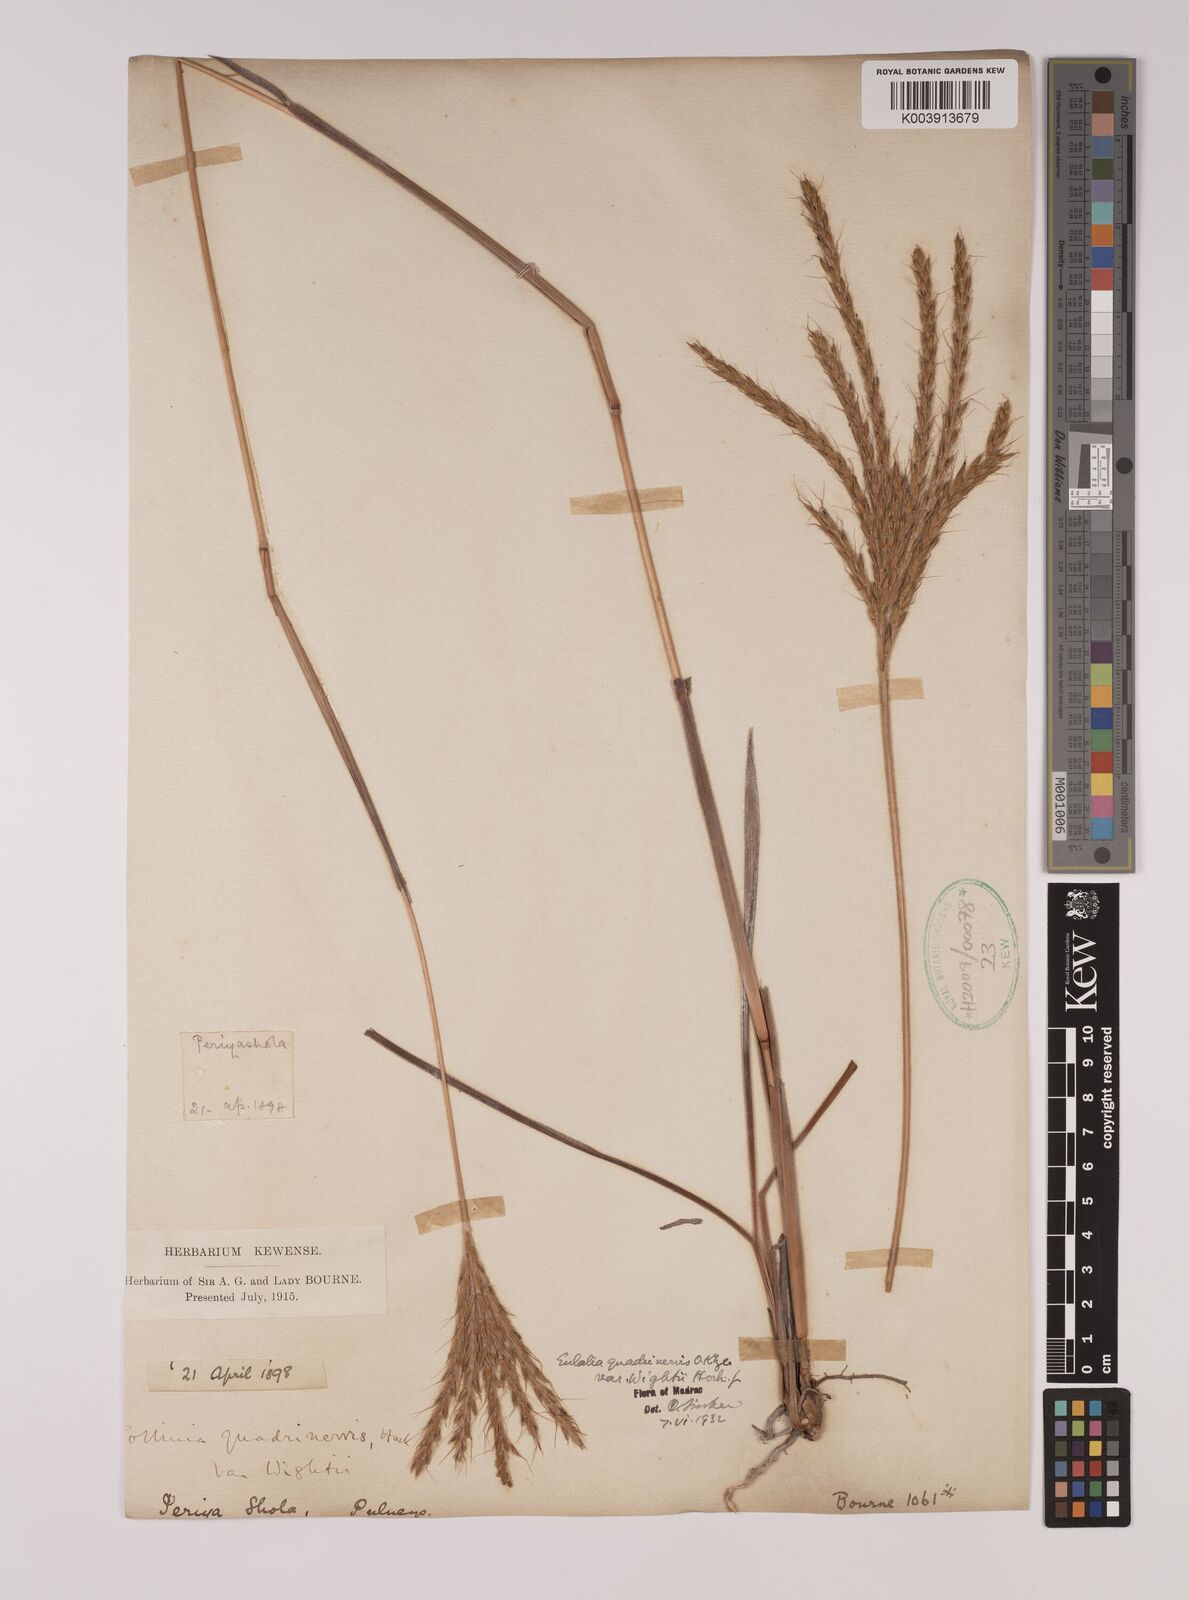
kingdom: Plantae
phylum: Tracheophyta
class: Liliopsida
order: Poales
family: Poaceae
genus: Pseudopogonatherum
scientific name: Pseudopogonatherum quadrinerve
